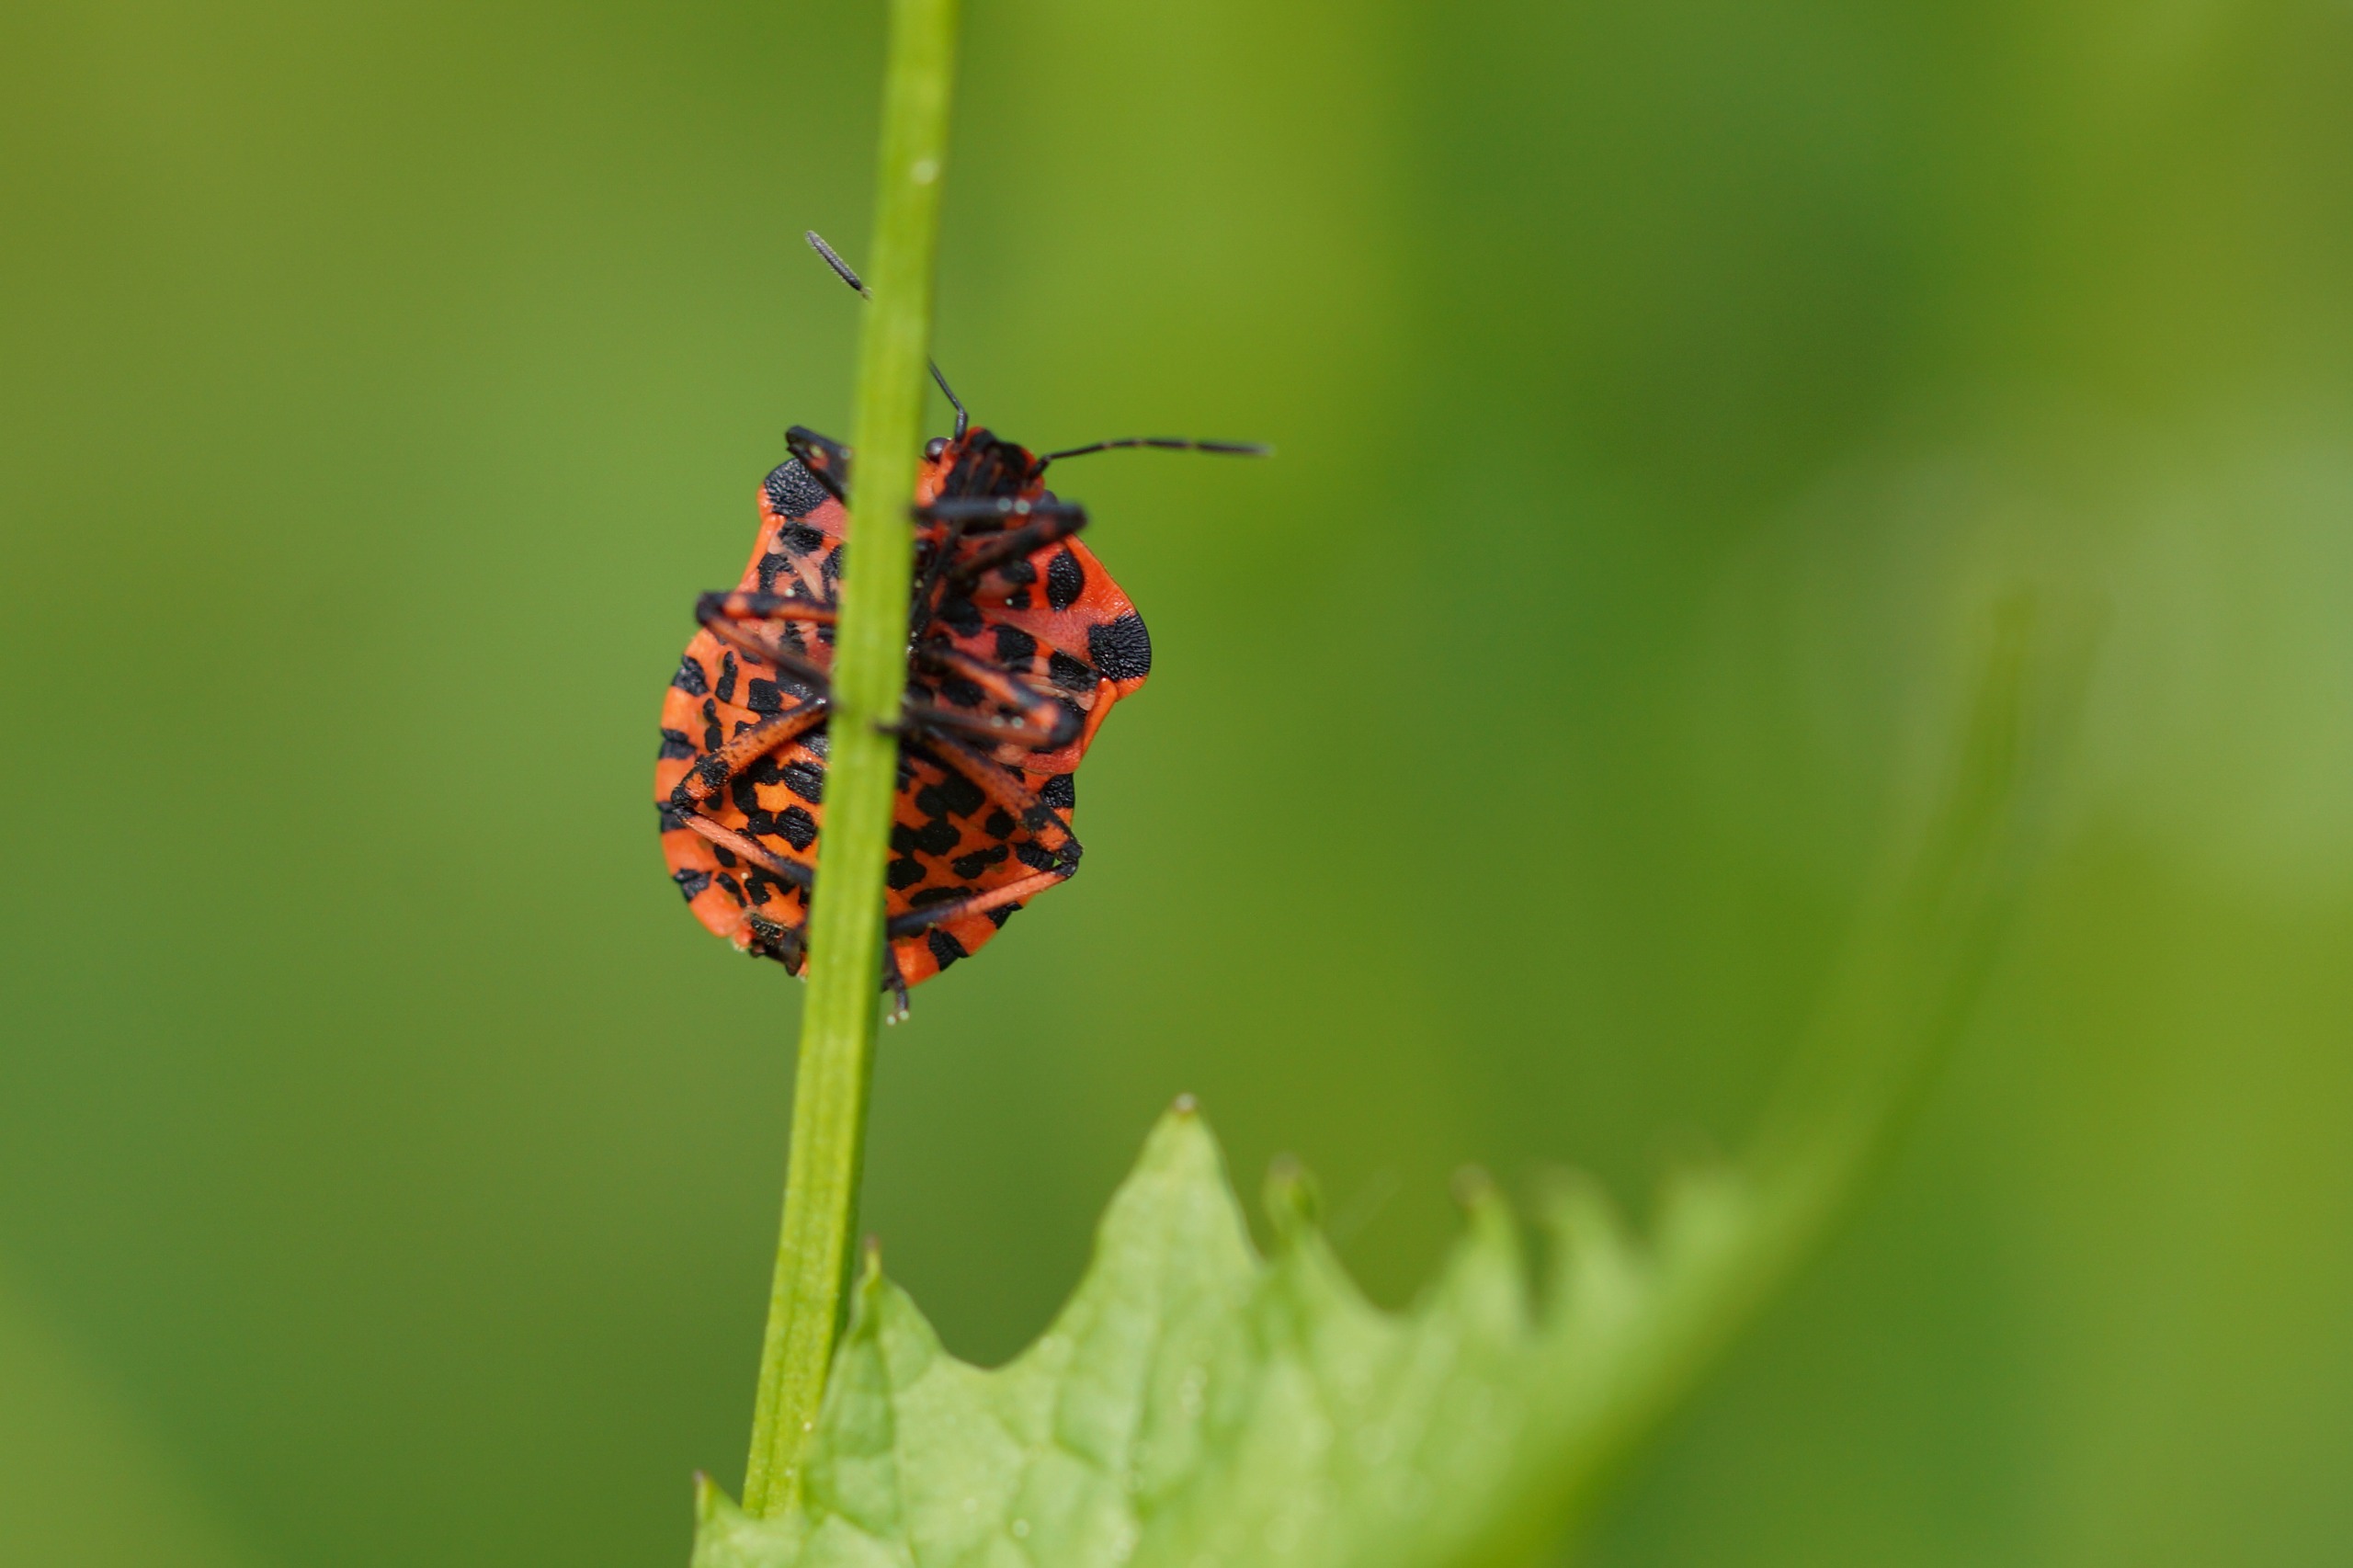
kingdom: Animalia
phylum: Arthropoda
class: Insecta
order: Hemiptera
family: Pentatomidae
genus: Graphosoma
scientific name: Graphosoma italicum
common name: Stribetæge
